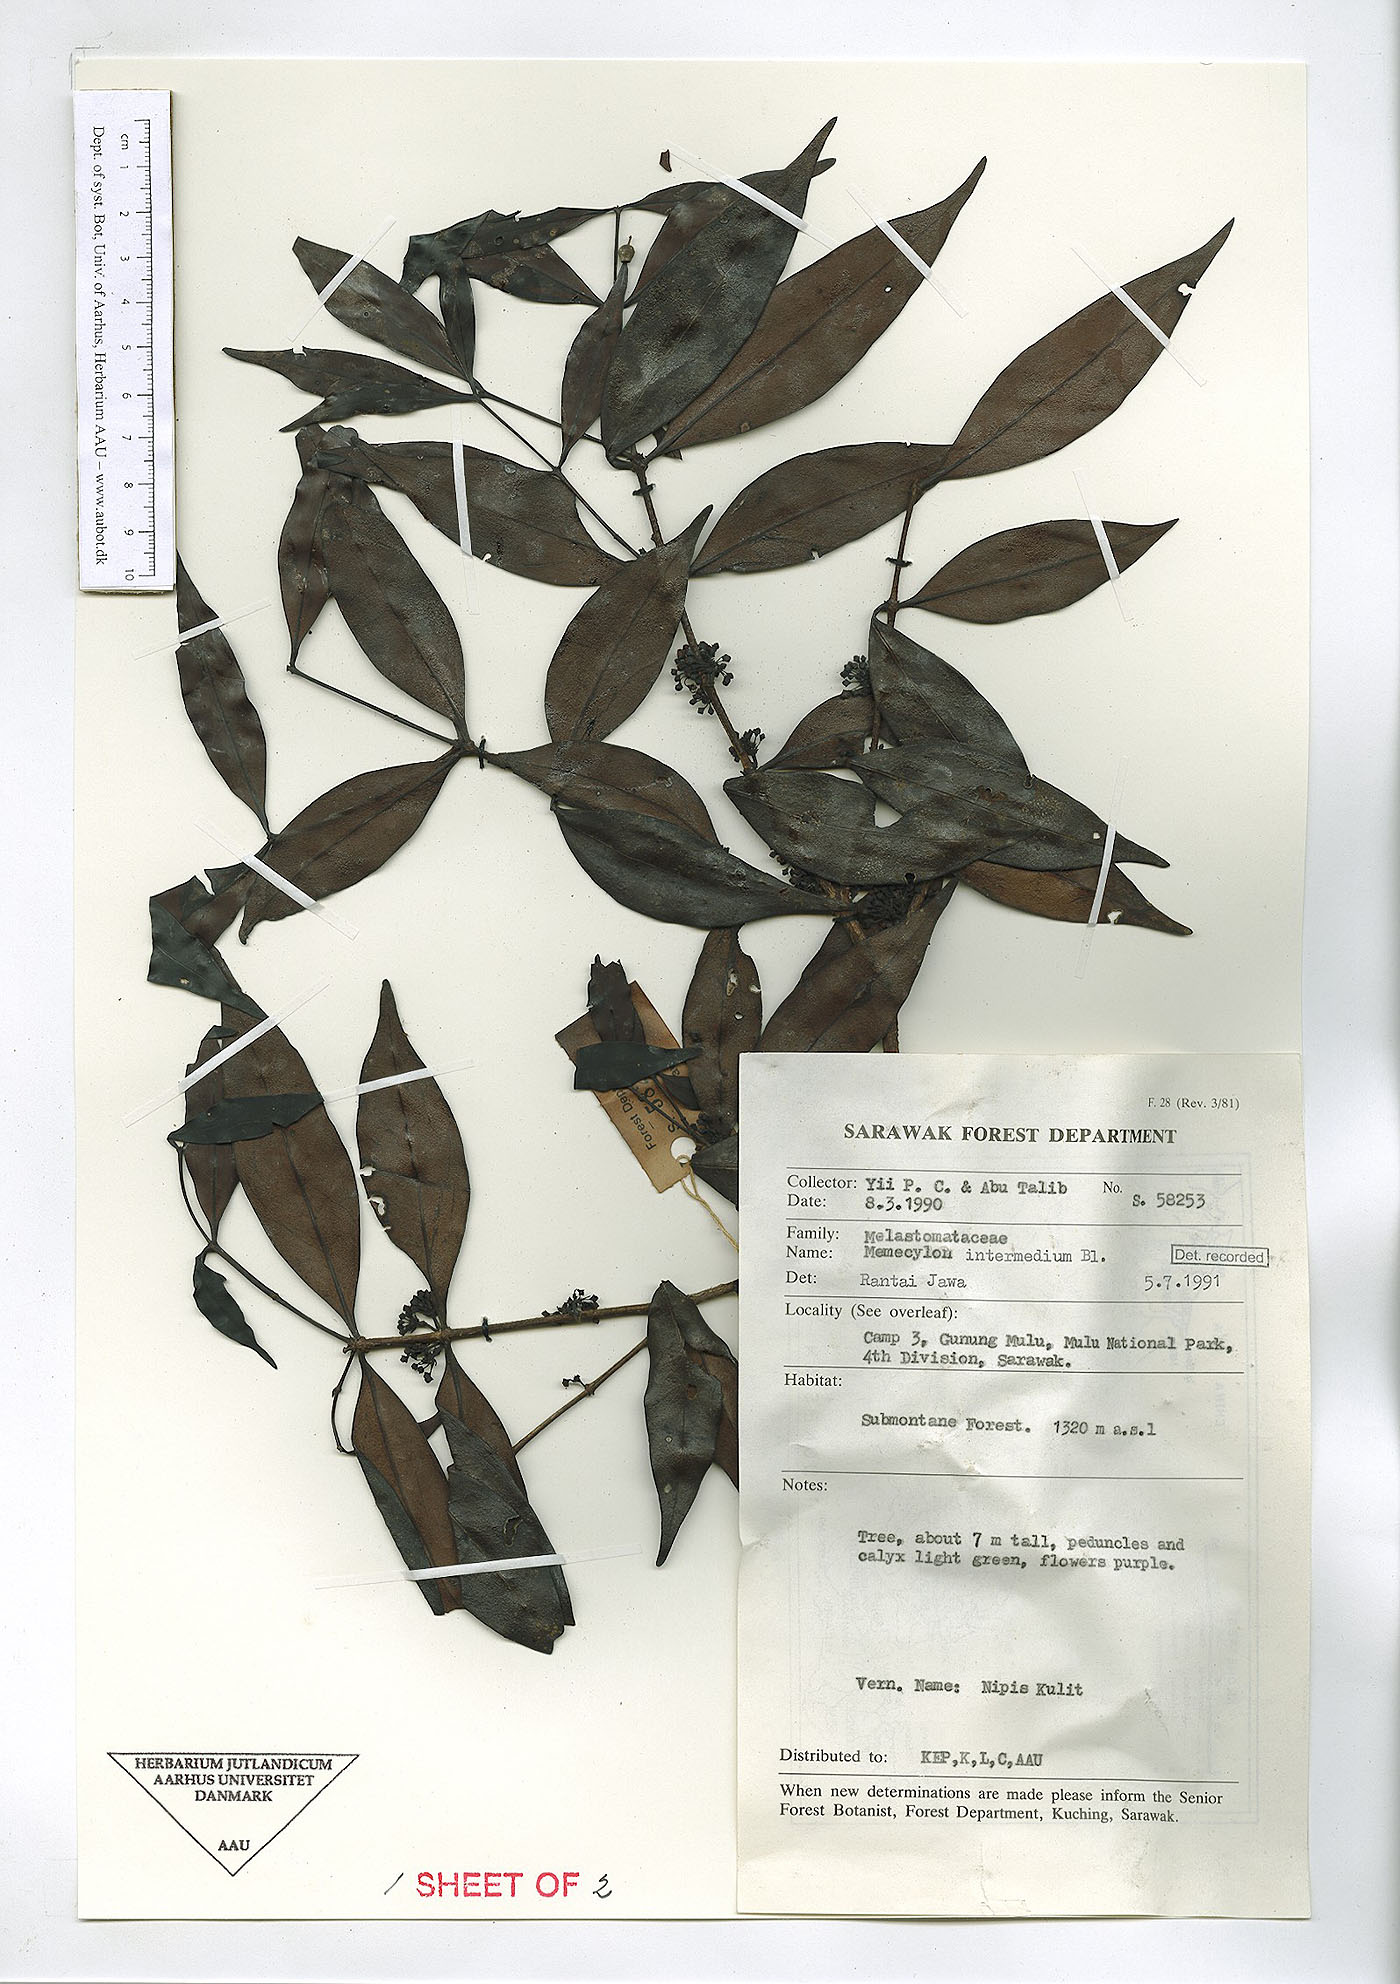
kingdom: Plantae
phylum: Tracheophyta
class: Magnoliopsida
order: Myrtales
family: Melastomataceae
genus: Memecylon
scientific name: Memecylon intermedium
